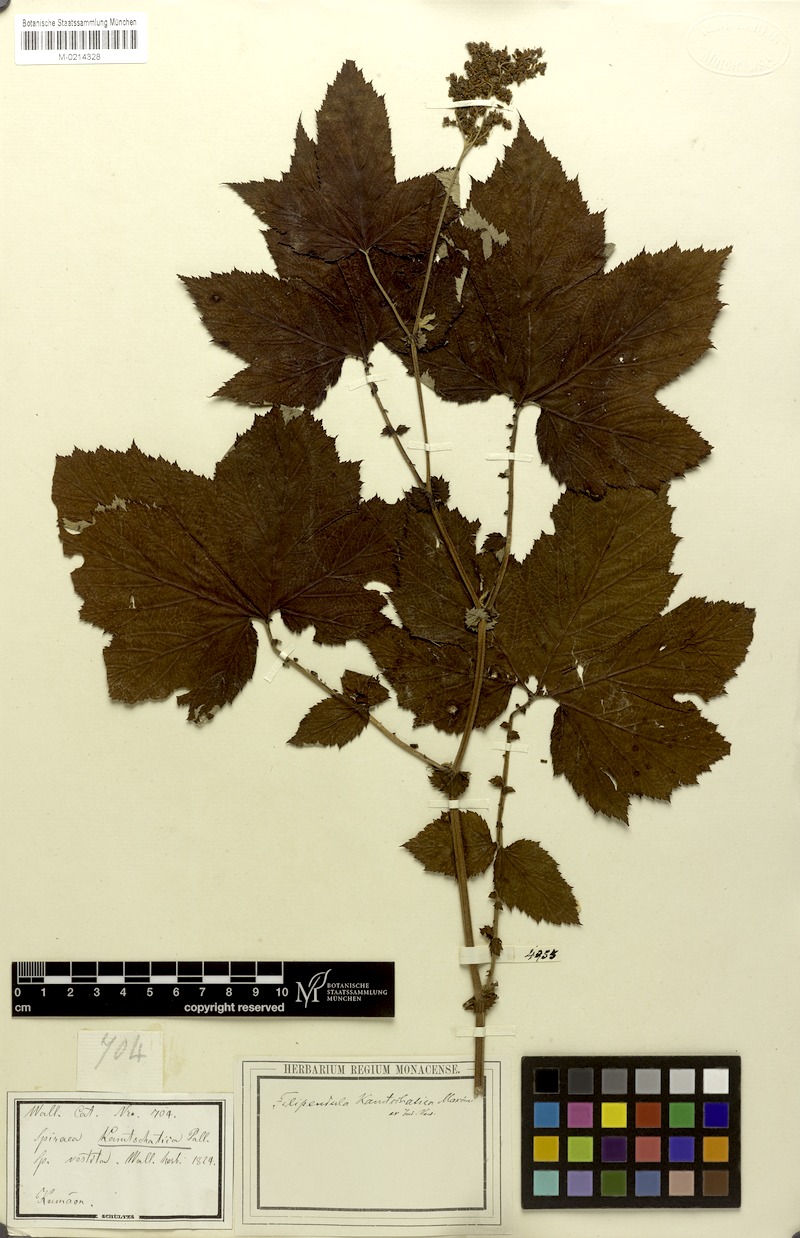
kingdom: Plantae
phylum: Tracheophyta
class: Magnoliopsida
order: Rosales
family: Rosaceae
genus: Filipendula
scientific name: Filipendula vestita
